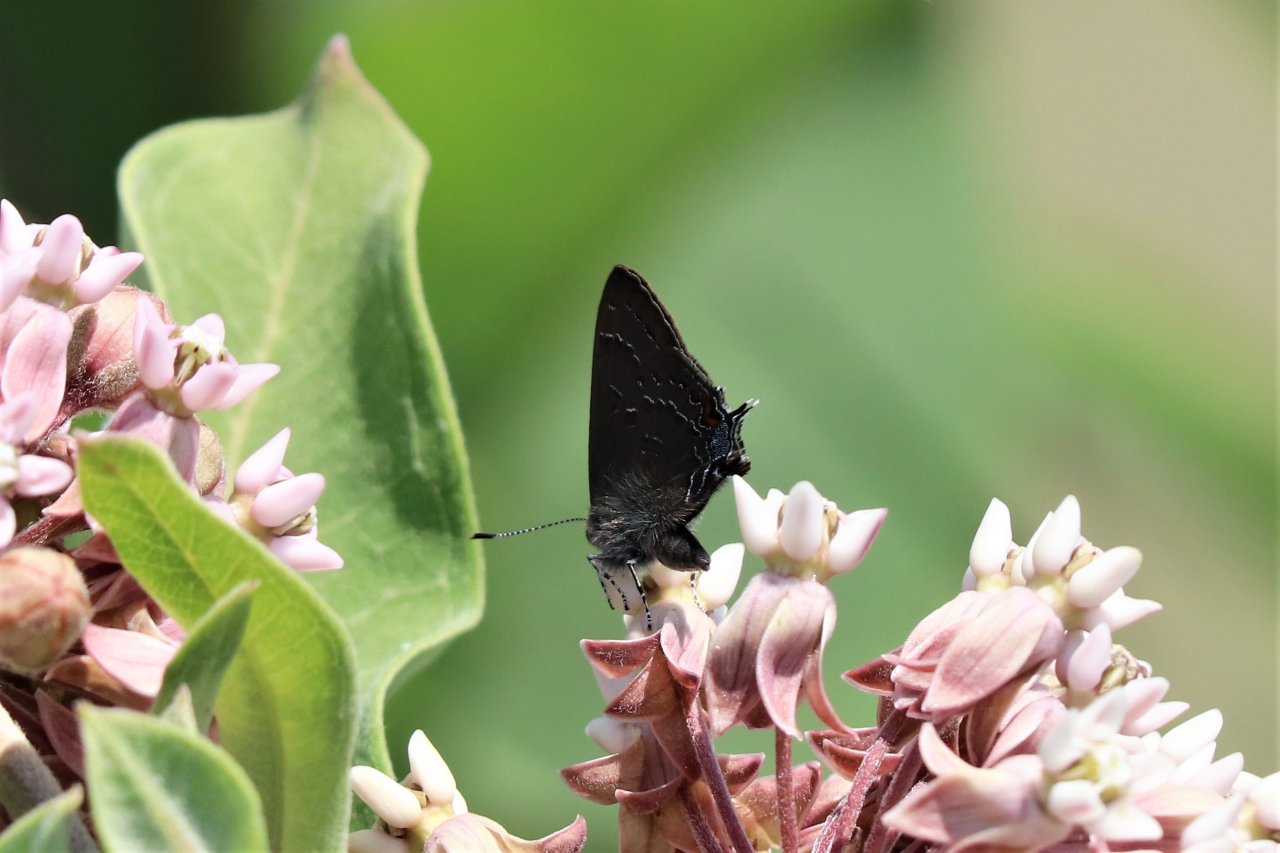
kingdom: Animalia
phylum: Arthropoda
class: Insecta
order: Lepidoptera
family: Lycaenidae
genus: Satyrium
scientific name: Satyrium calanus
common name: Banded Hairstreak
